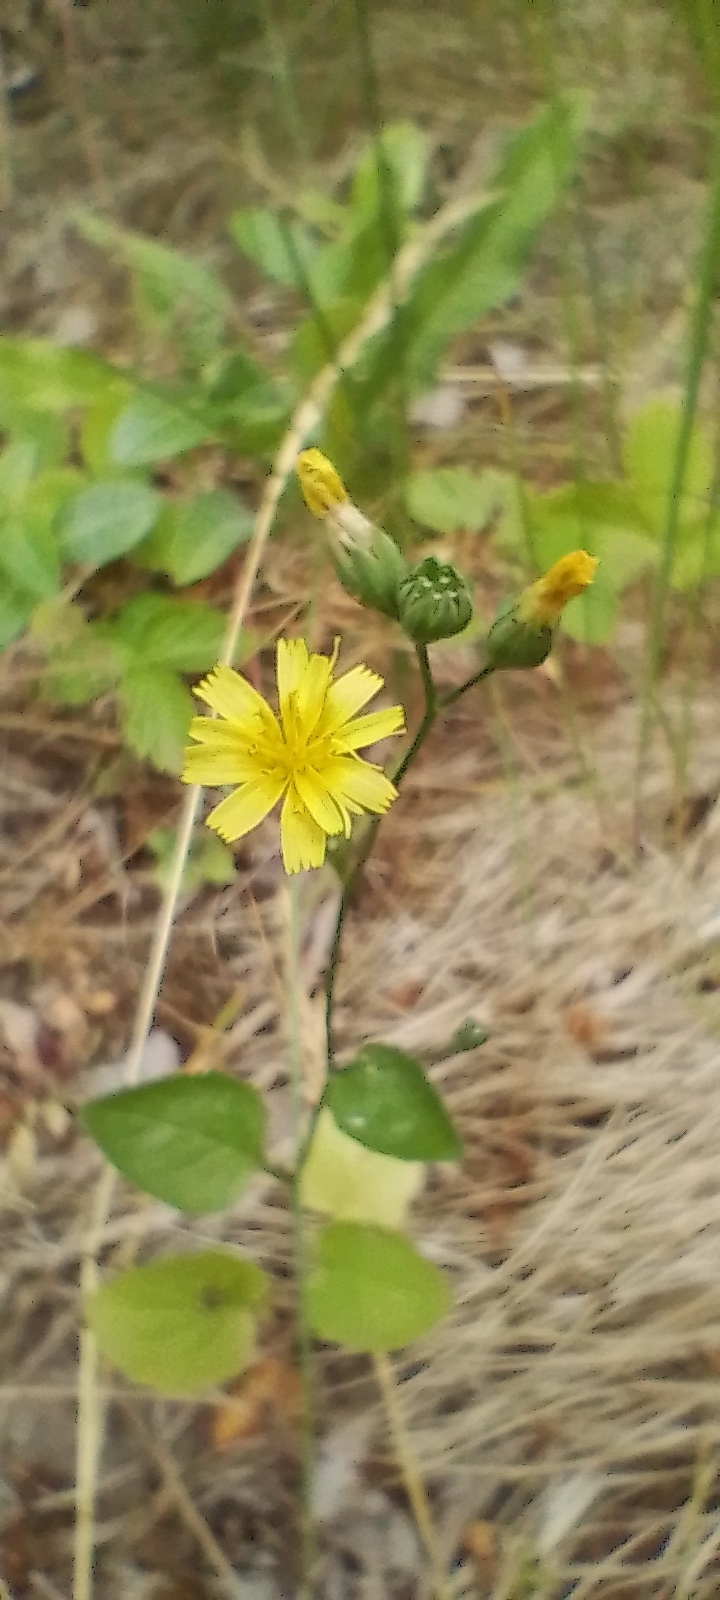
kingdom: Plantae
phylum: Tracheophyta
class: Magnoliopsida
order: Asterales
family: Asteraceae
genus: Lapsana
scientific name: Lapsana communis
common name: Haremad
